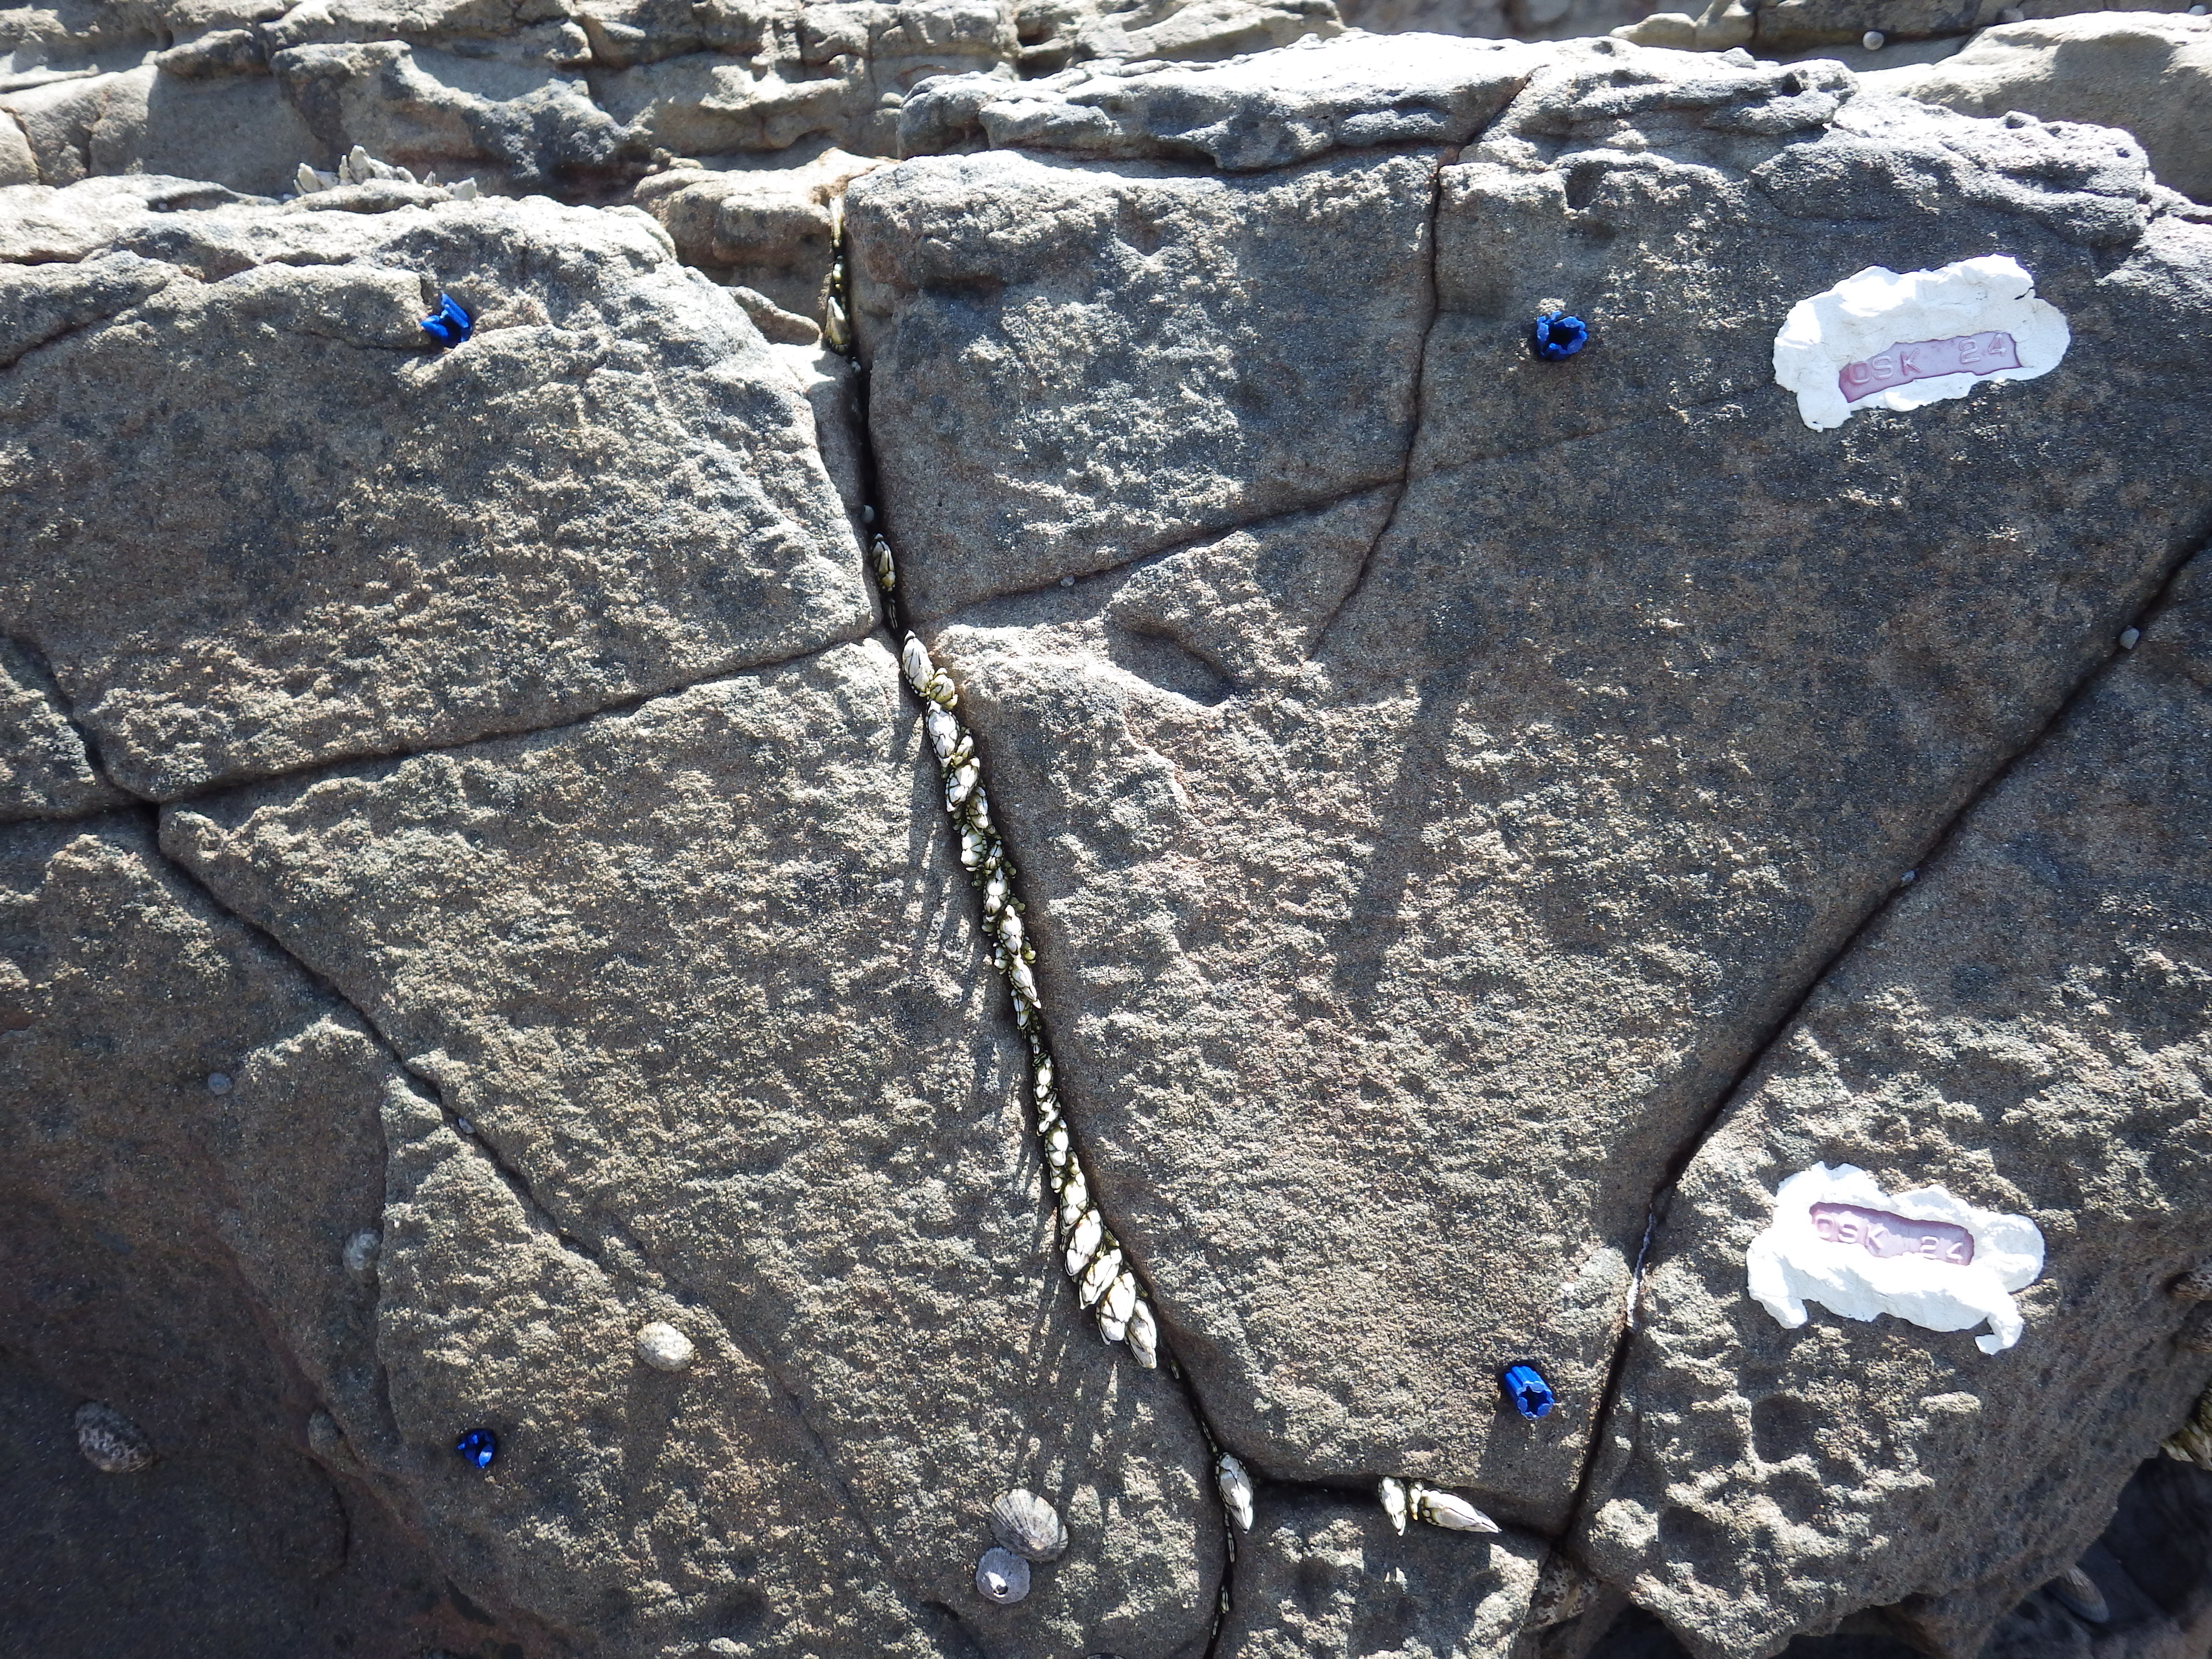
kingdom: Animalia
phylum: Arthropoda
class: Maxillopoda
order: Sessilia
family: Chthamalidae
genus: Chthamalus
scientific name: Chthamalus challengeri
